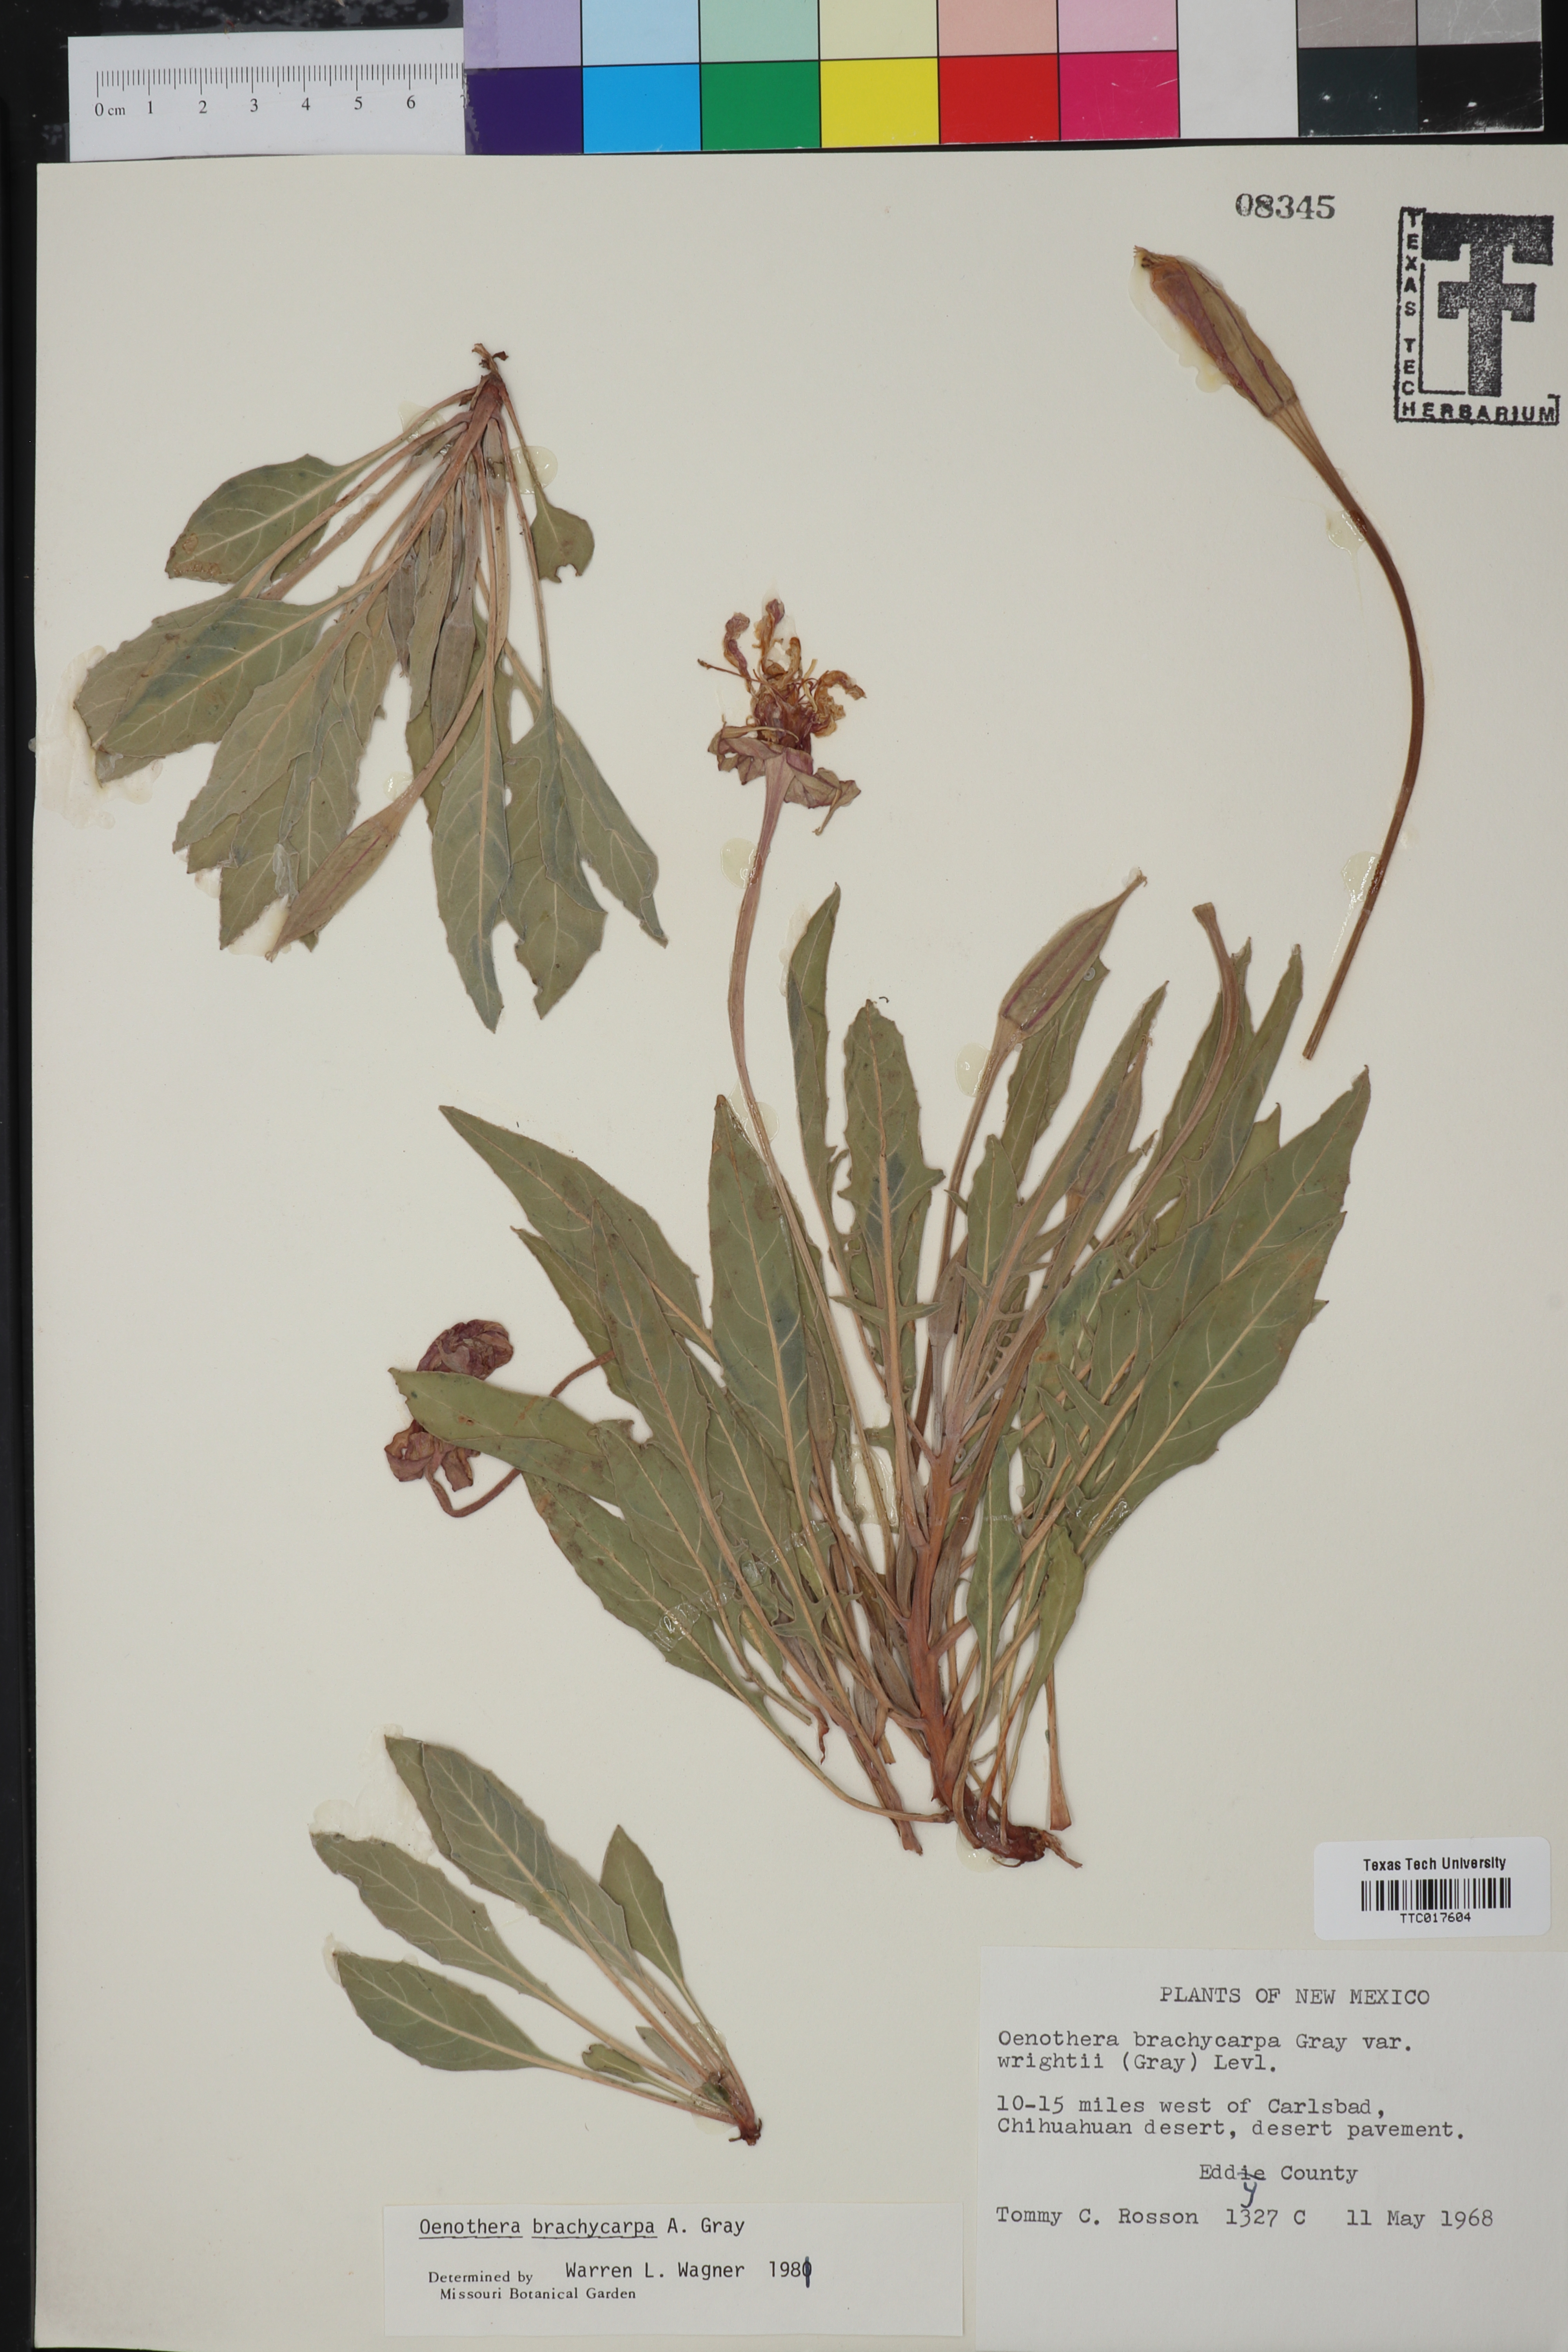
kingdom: Plantae
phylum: Tracheophyta
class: Magnoliopsida
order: Myrtales
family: Onagraceae
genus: Oenothera
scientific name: Oenothera brachycarpa
